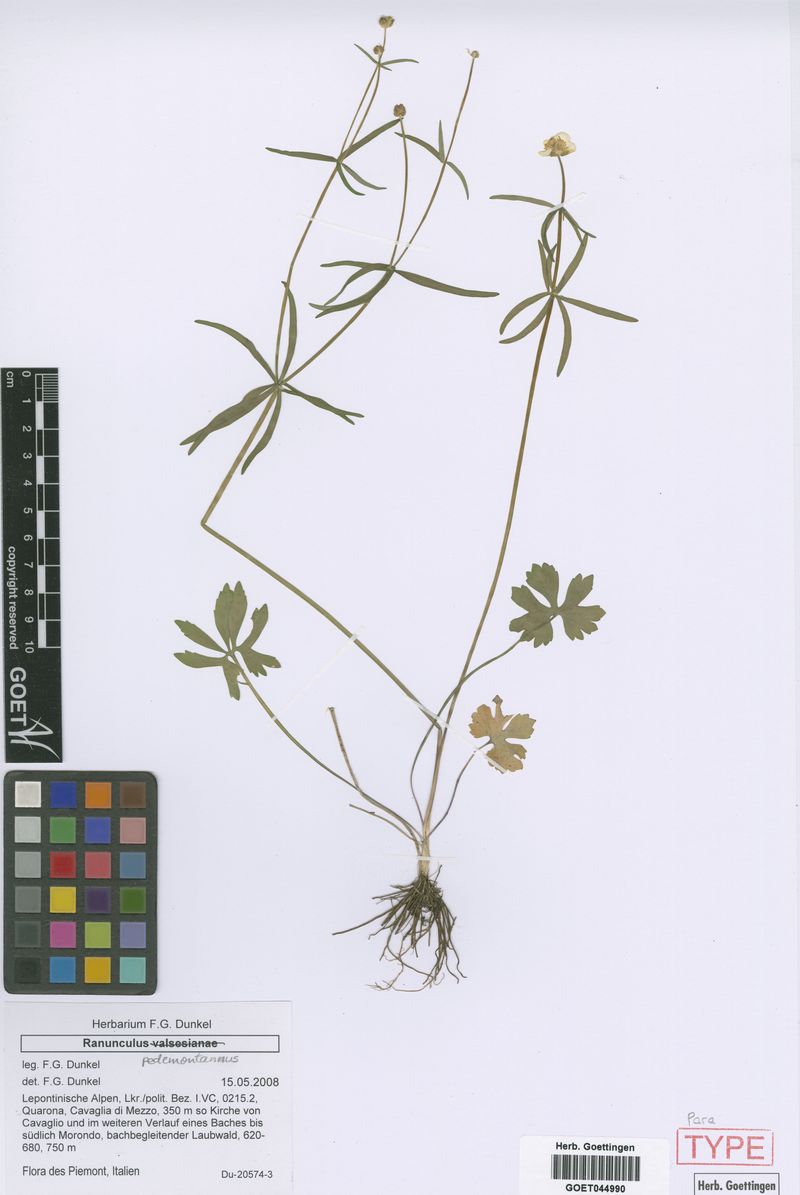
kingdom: Plantae
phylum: Tracheophyta
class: Magnoliopsida
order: Ranunculales
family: Ranunculaceae
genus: Ranunculus
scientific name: Ranunculus pedemontanus
